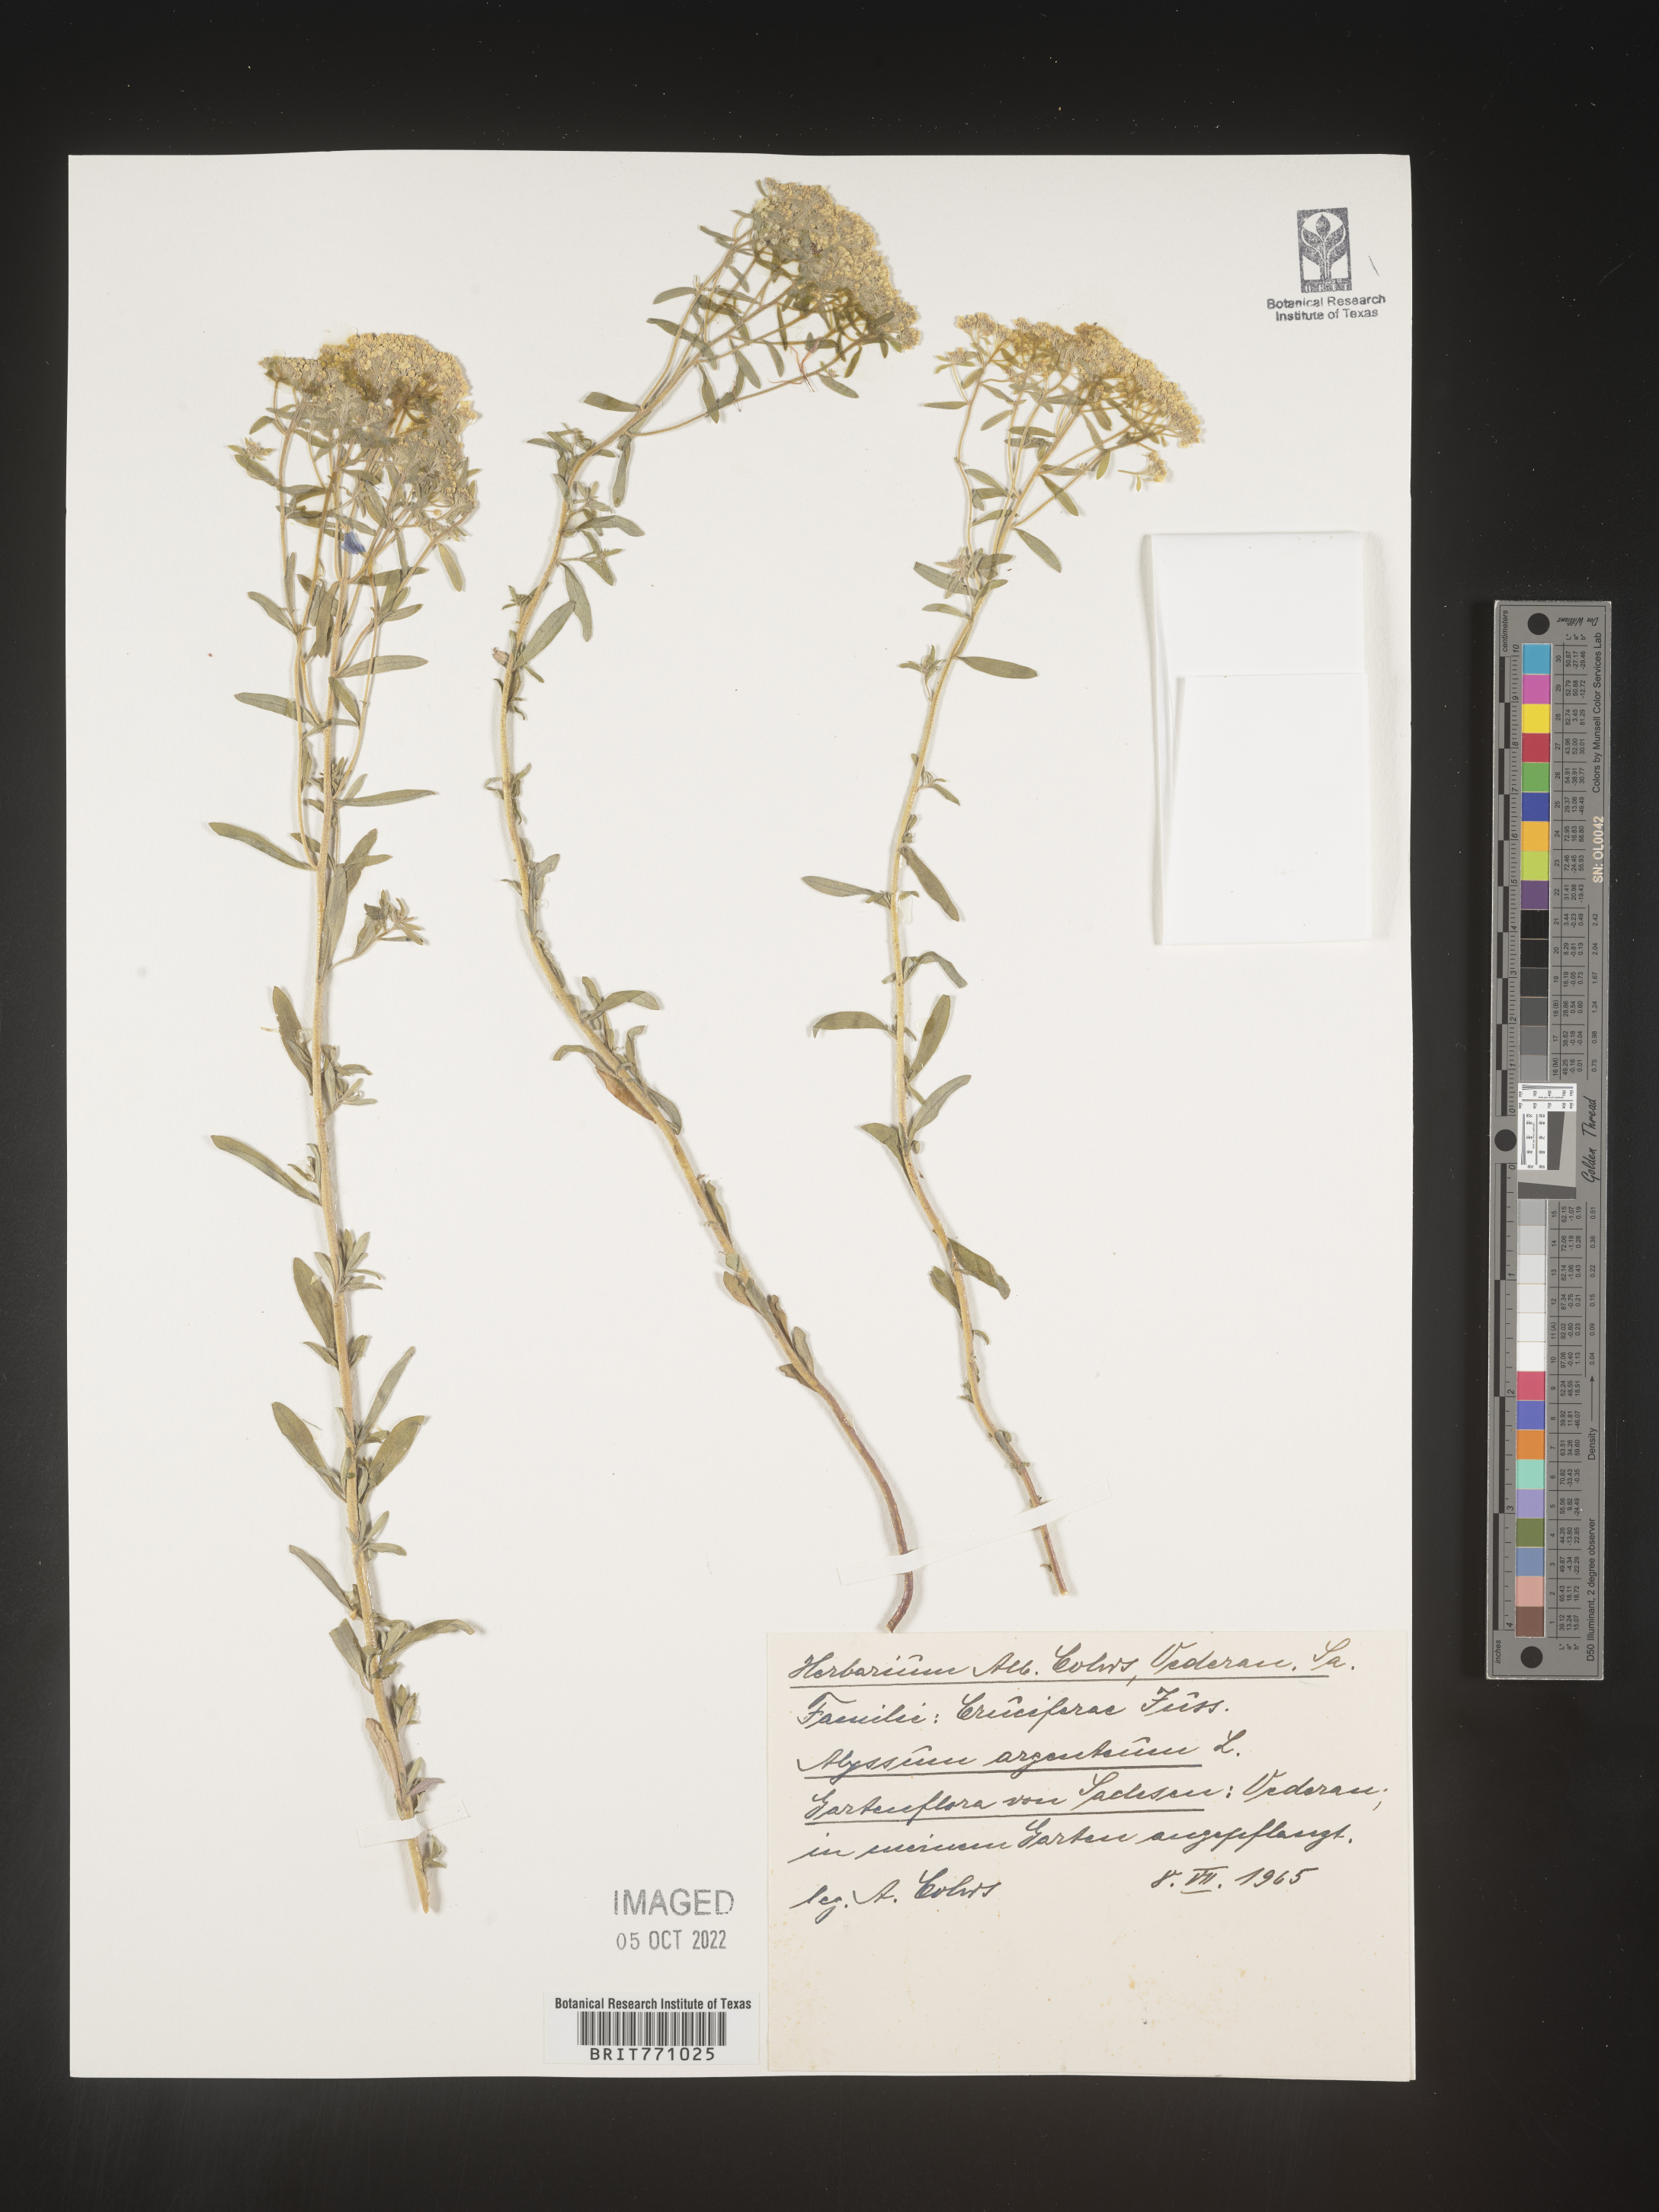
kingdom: Plantae
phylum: Tracheophyta
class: Magnoliopsida
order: Brassicales
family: Brassicaceae
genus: Alyssum
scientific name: Alyssum
